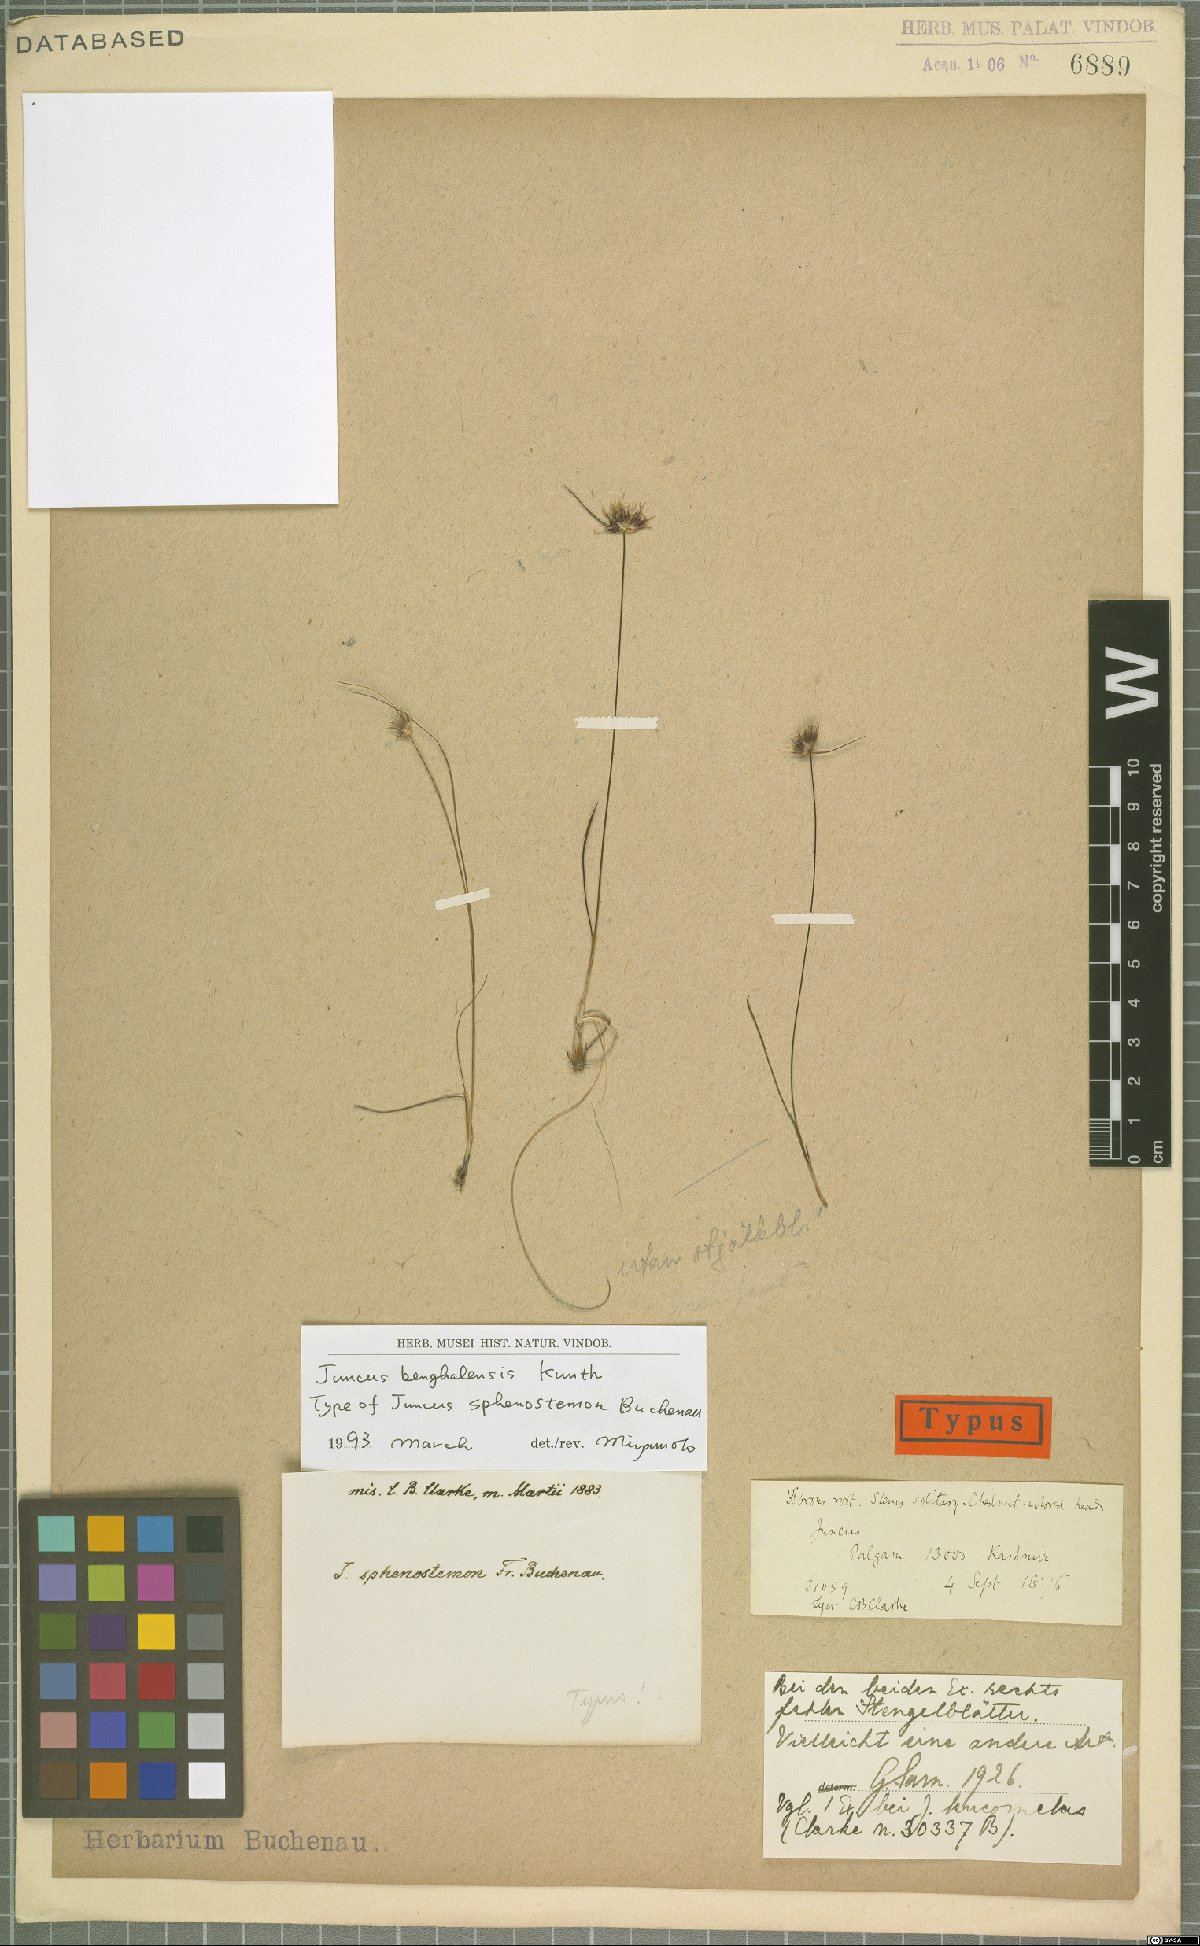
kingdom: Plantae
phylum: Tracheophyta
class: Liliopsida
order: Poales
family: Juncaceae
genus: Juncus
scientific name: Juncus benghalensis
